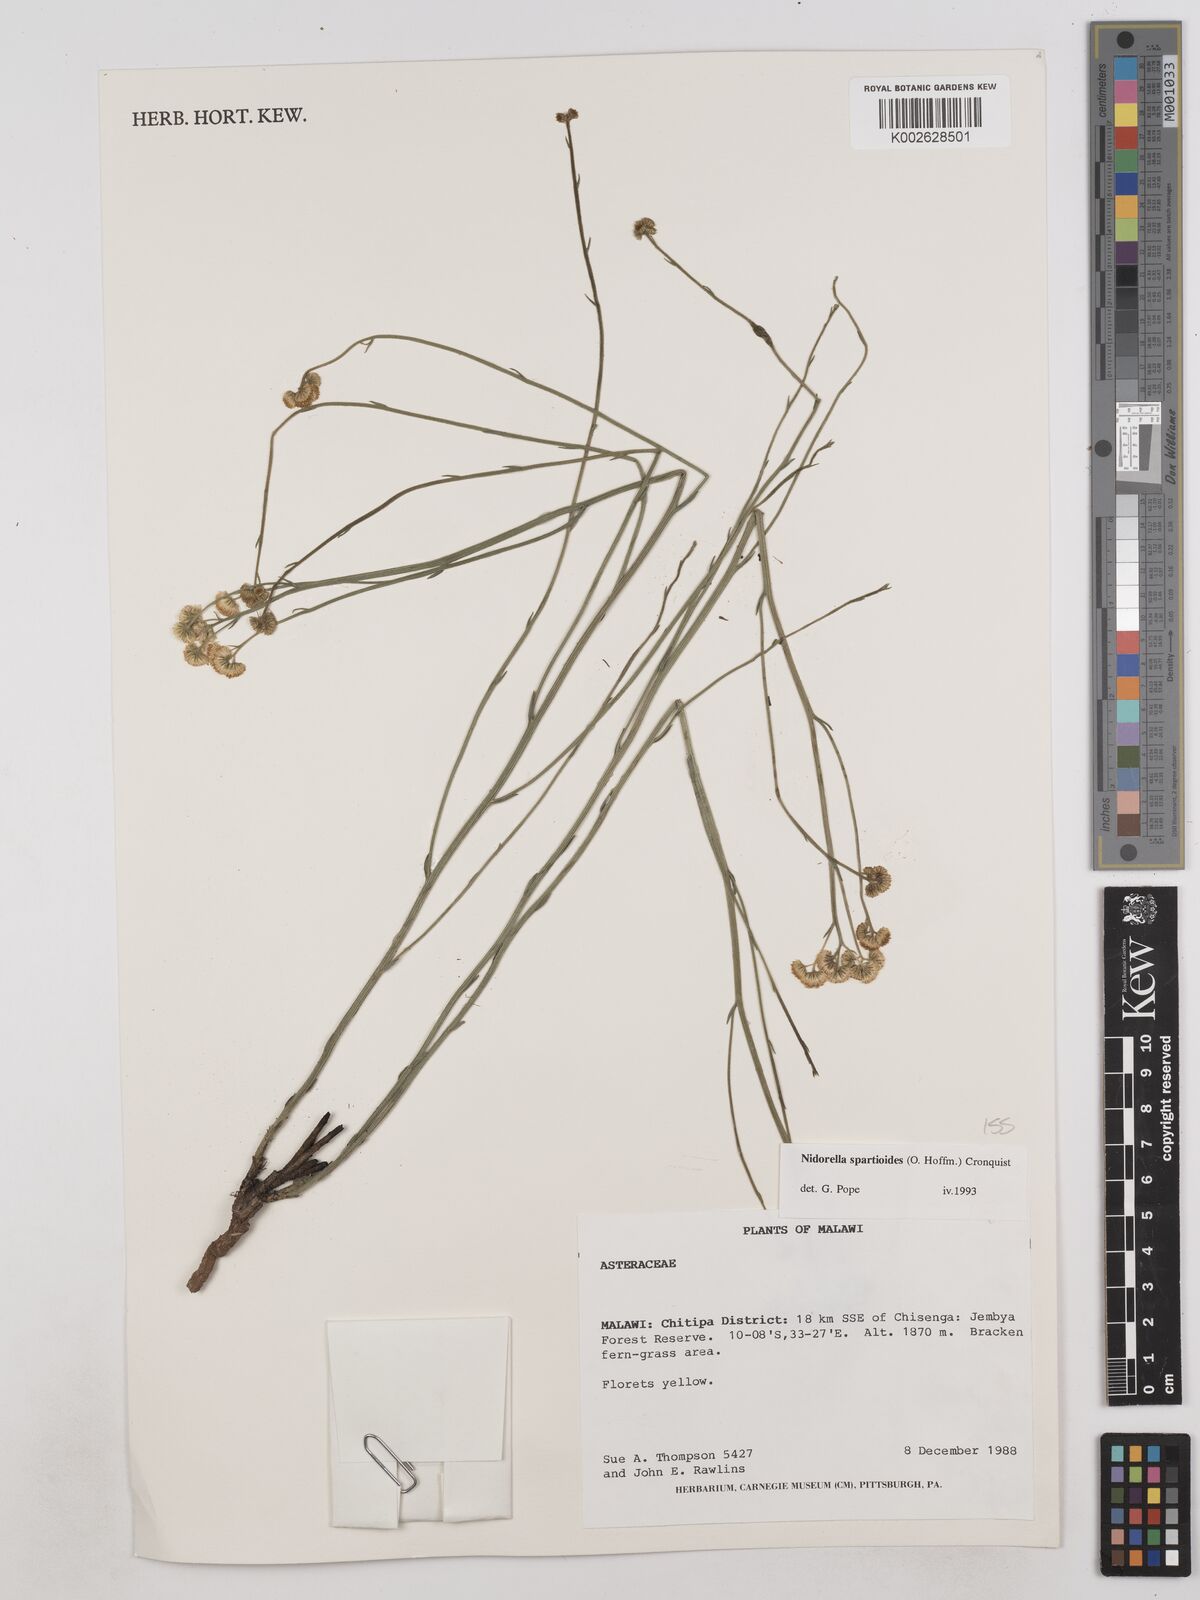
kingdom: Plantae
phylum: Tracheophyta
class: Magnoliopsida
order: Asterales
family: Asteraceae
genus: Nidorella
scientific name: Nidorella spartioides
